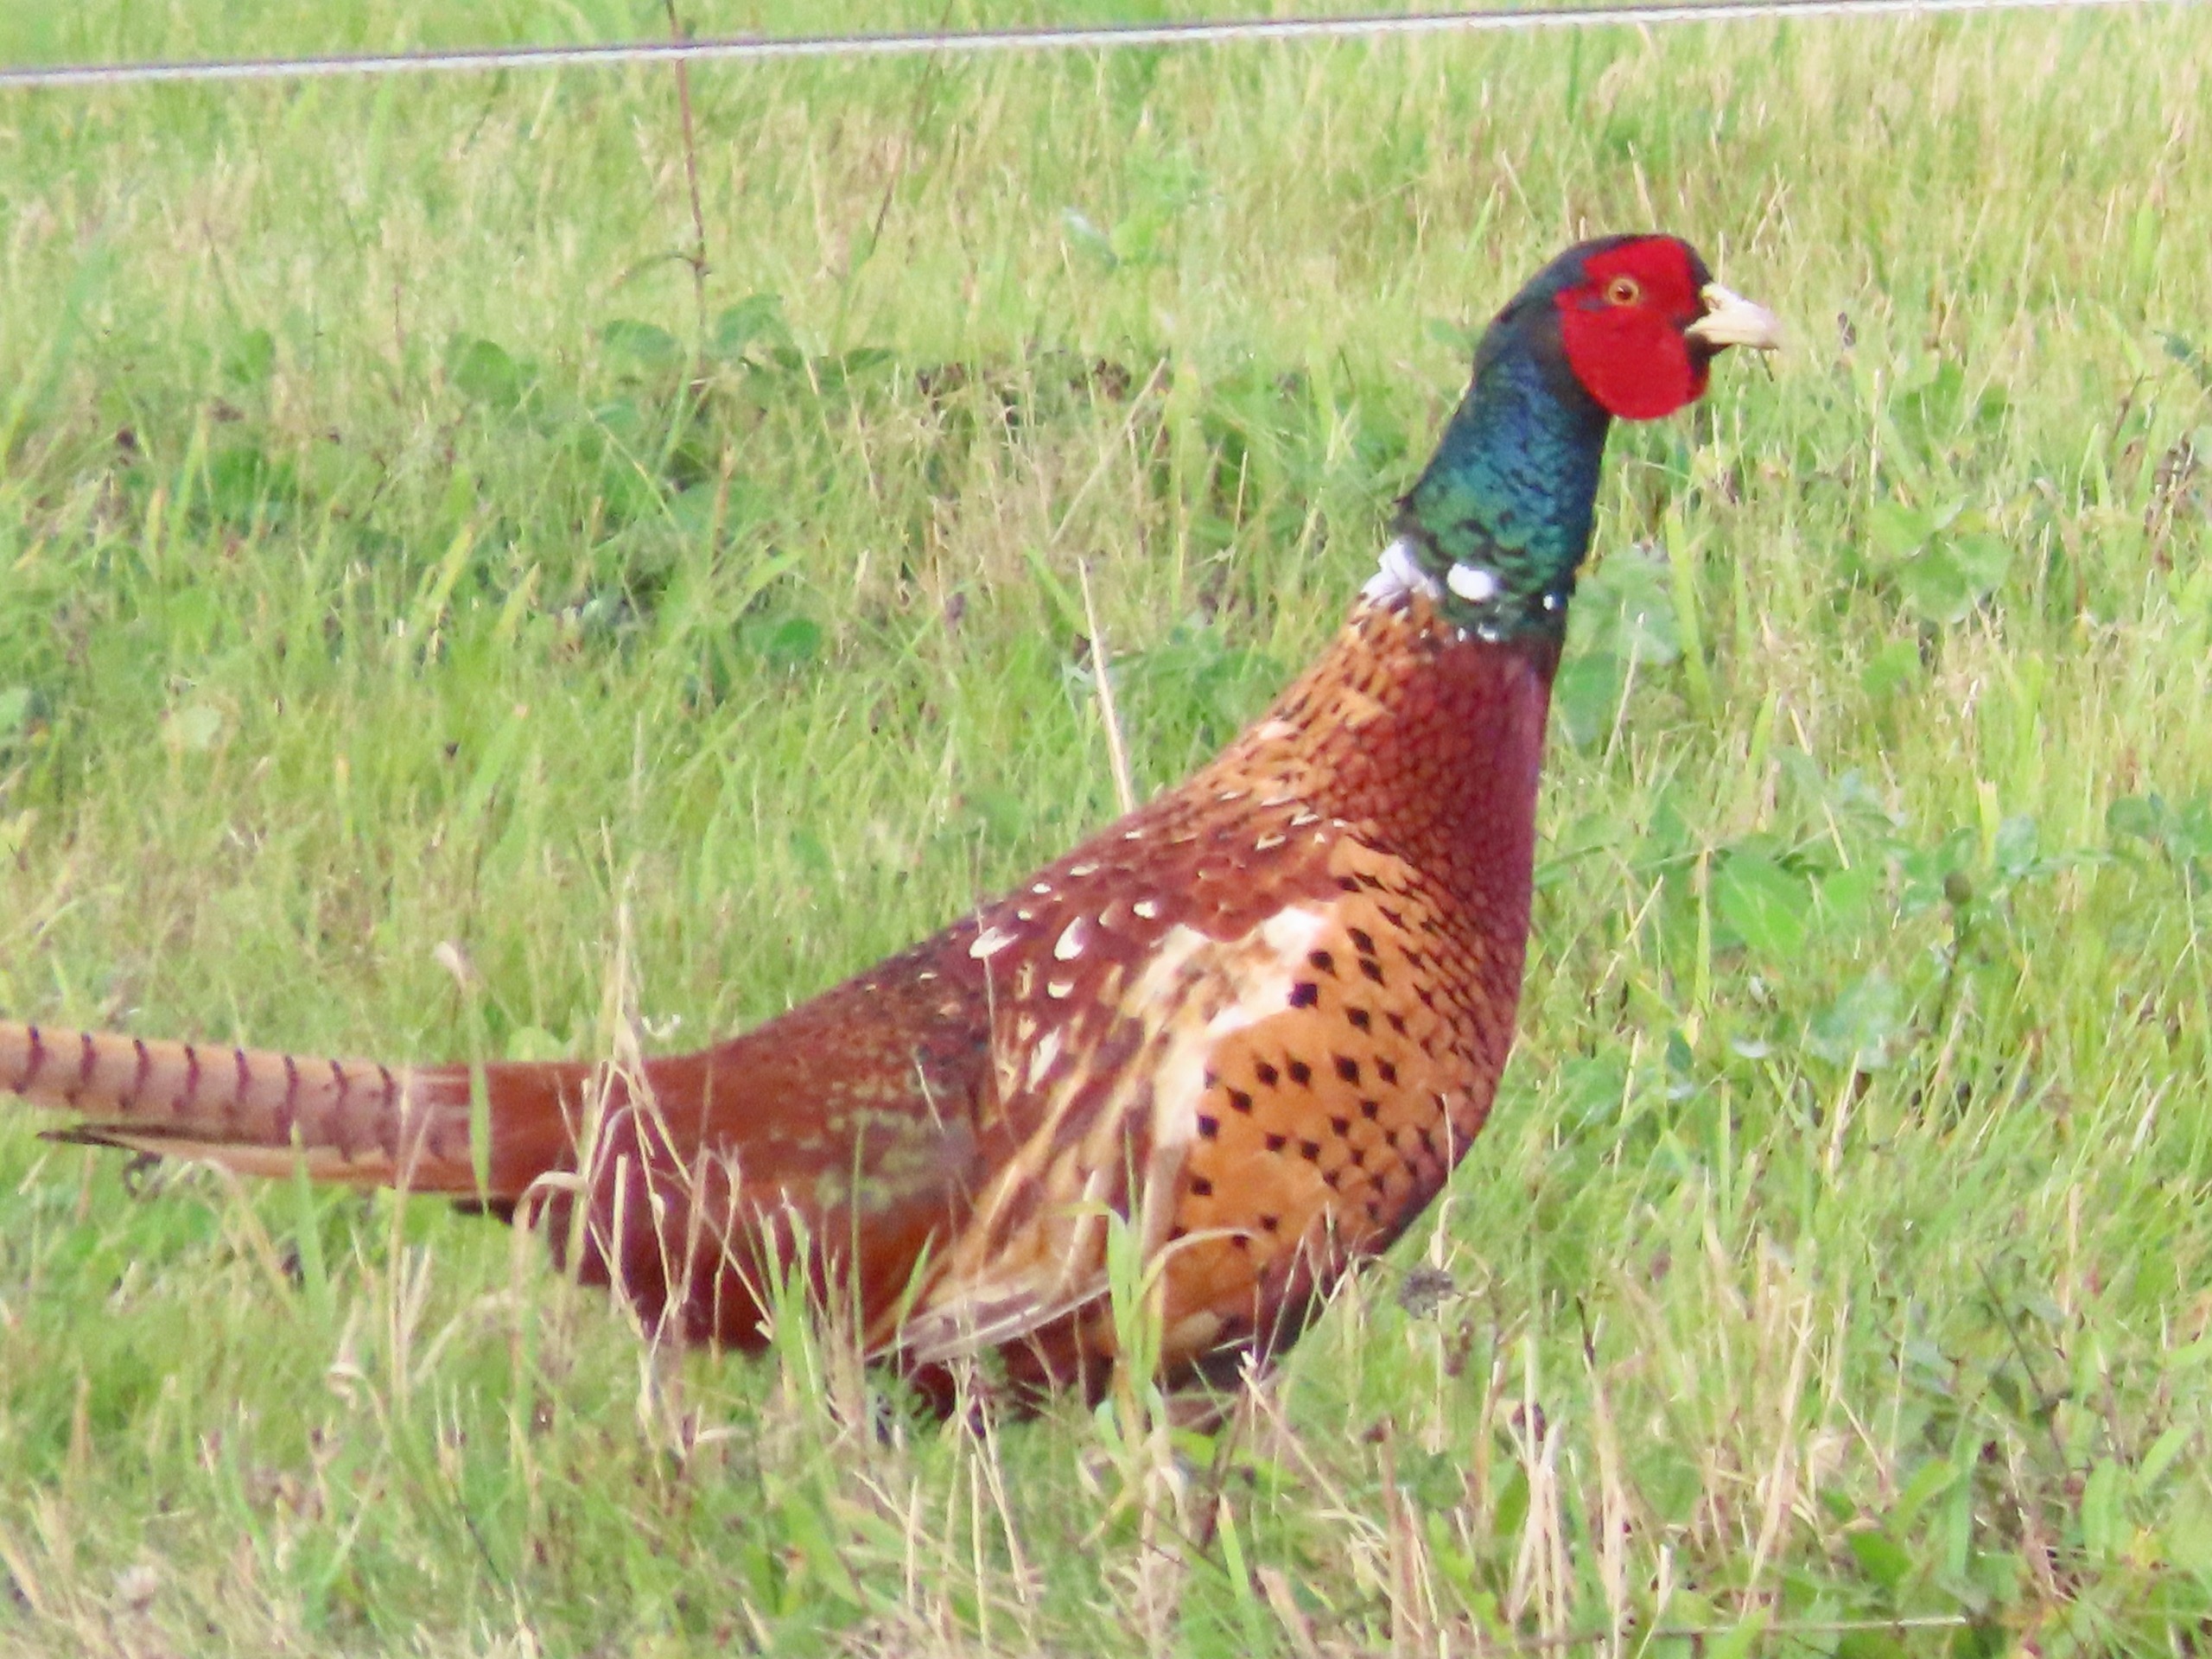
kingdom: Animalia
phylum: Chordata
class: Aves
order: Galliformes
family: Phasianidae
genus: Phasianus
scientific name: Phasianus colchicus
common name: Fasan
